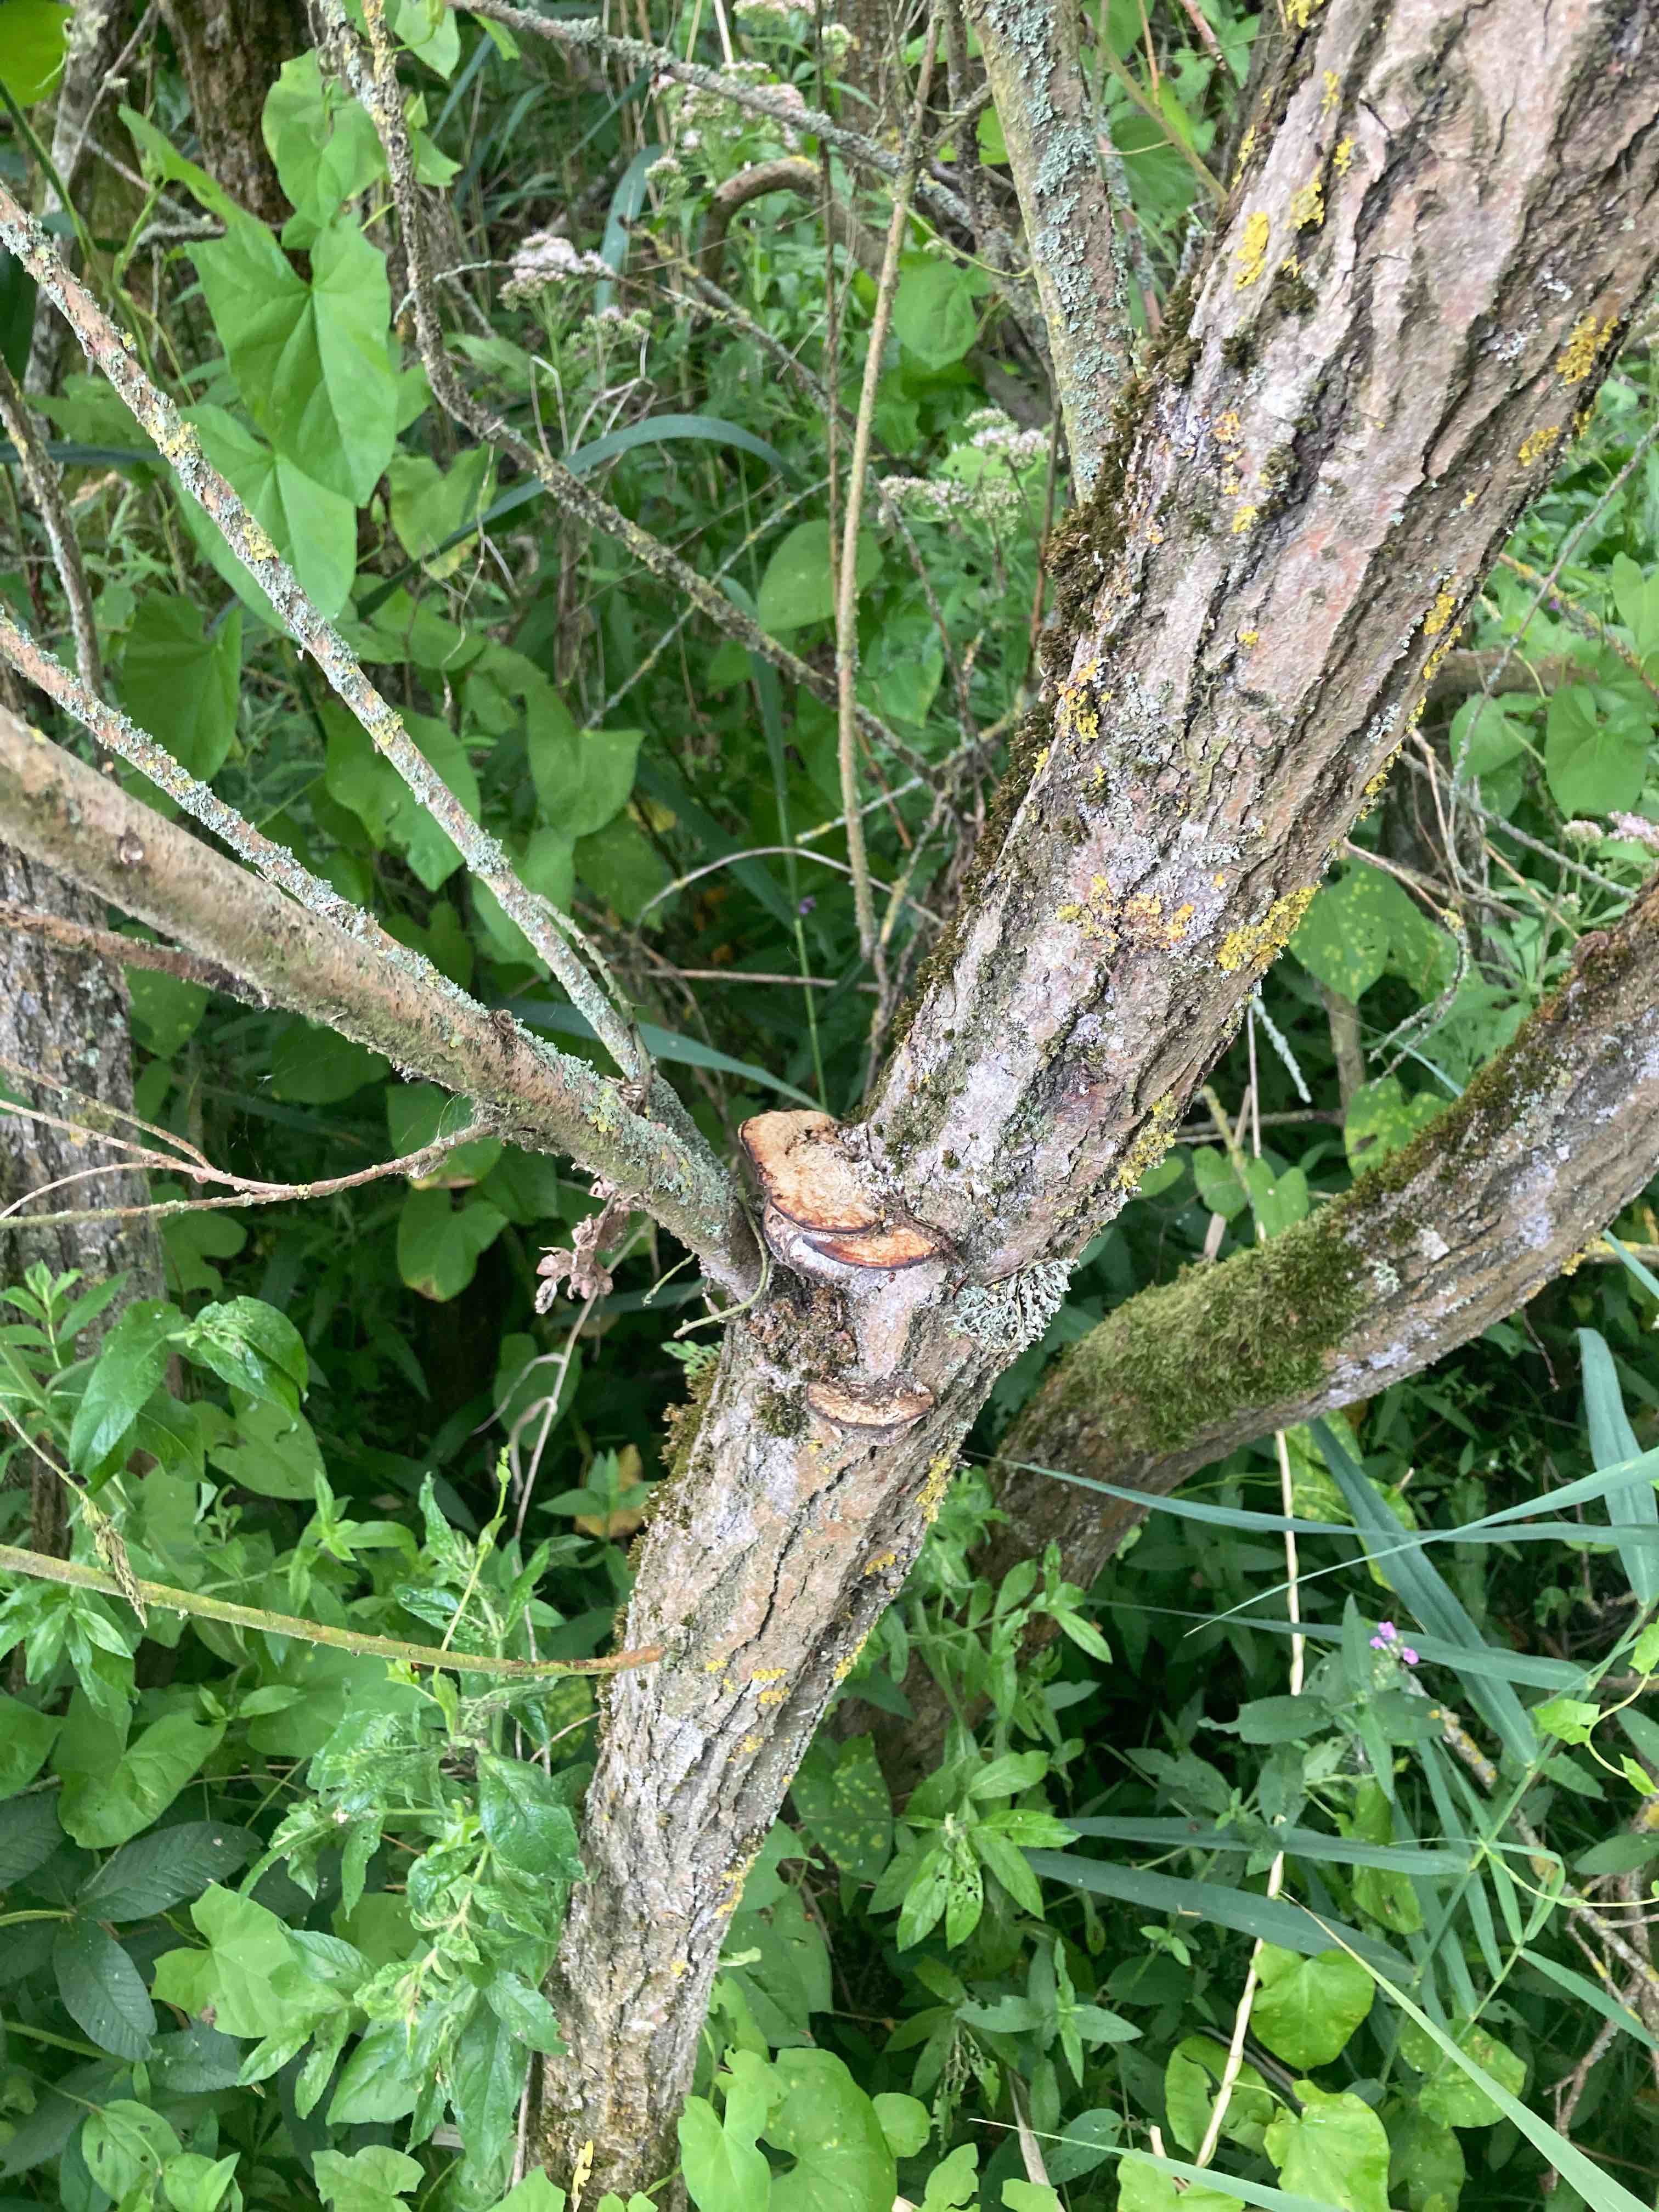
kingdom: Fungi
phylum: Basidiomycota
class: Agaricomycetes
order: Polyporales
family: Polyporaceae
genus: Daedaleopsis
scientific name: Daedaleopsis confragosa
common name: rødmende læderporesvamp
